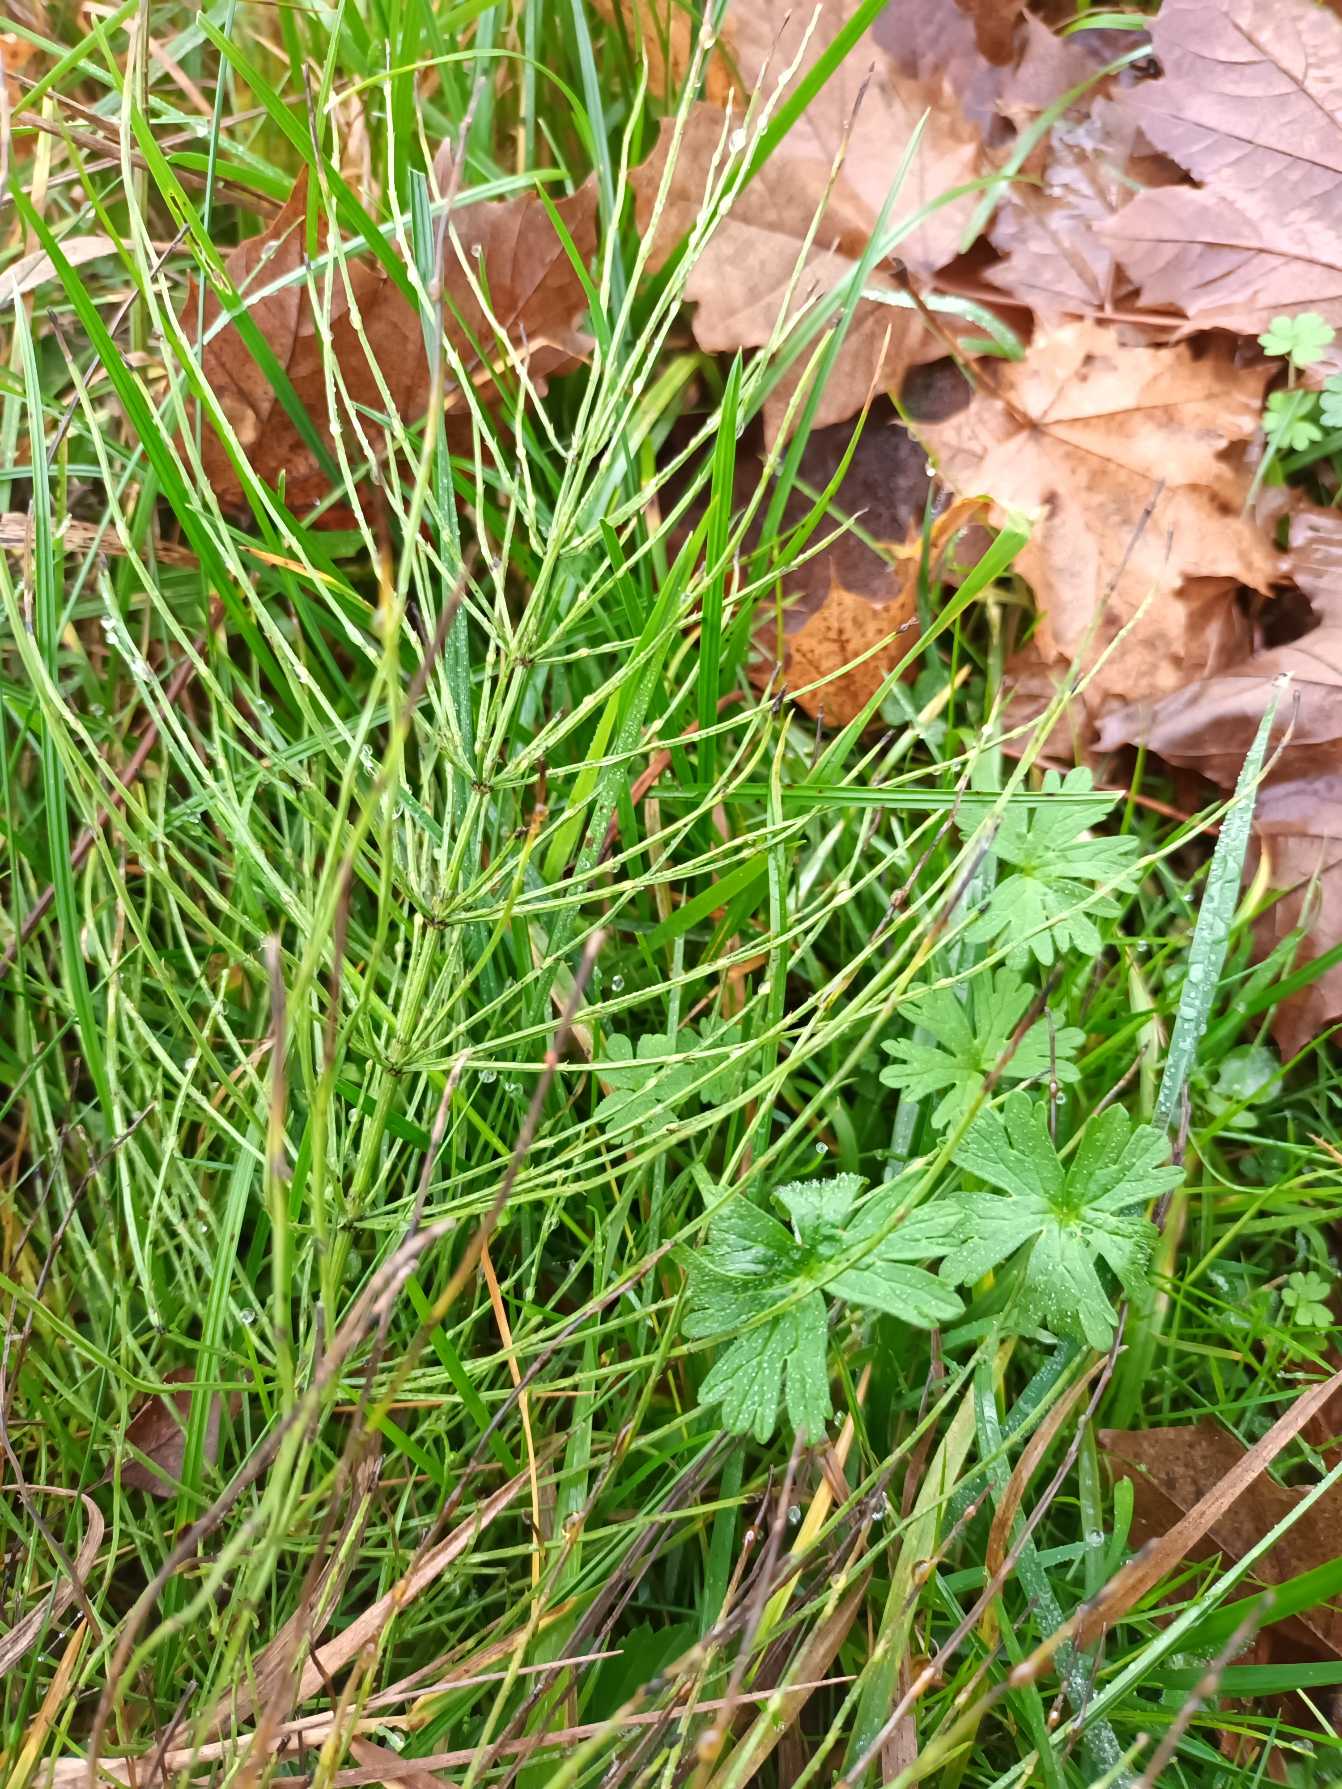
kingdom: Plantae
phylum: Tracheophyta
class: Polypodiopsida
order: Equisetales
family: Equisetaceae
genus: Equisetum
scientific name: Equisetum arvense
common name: Ager-padderok
